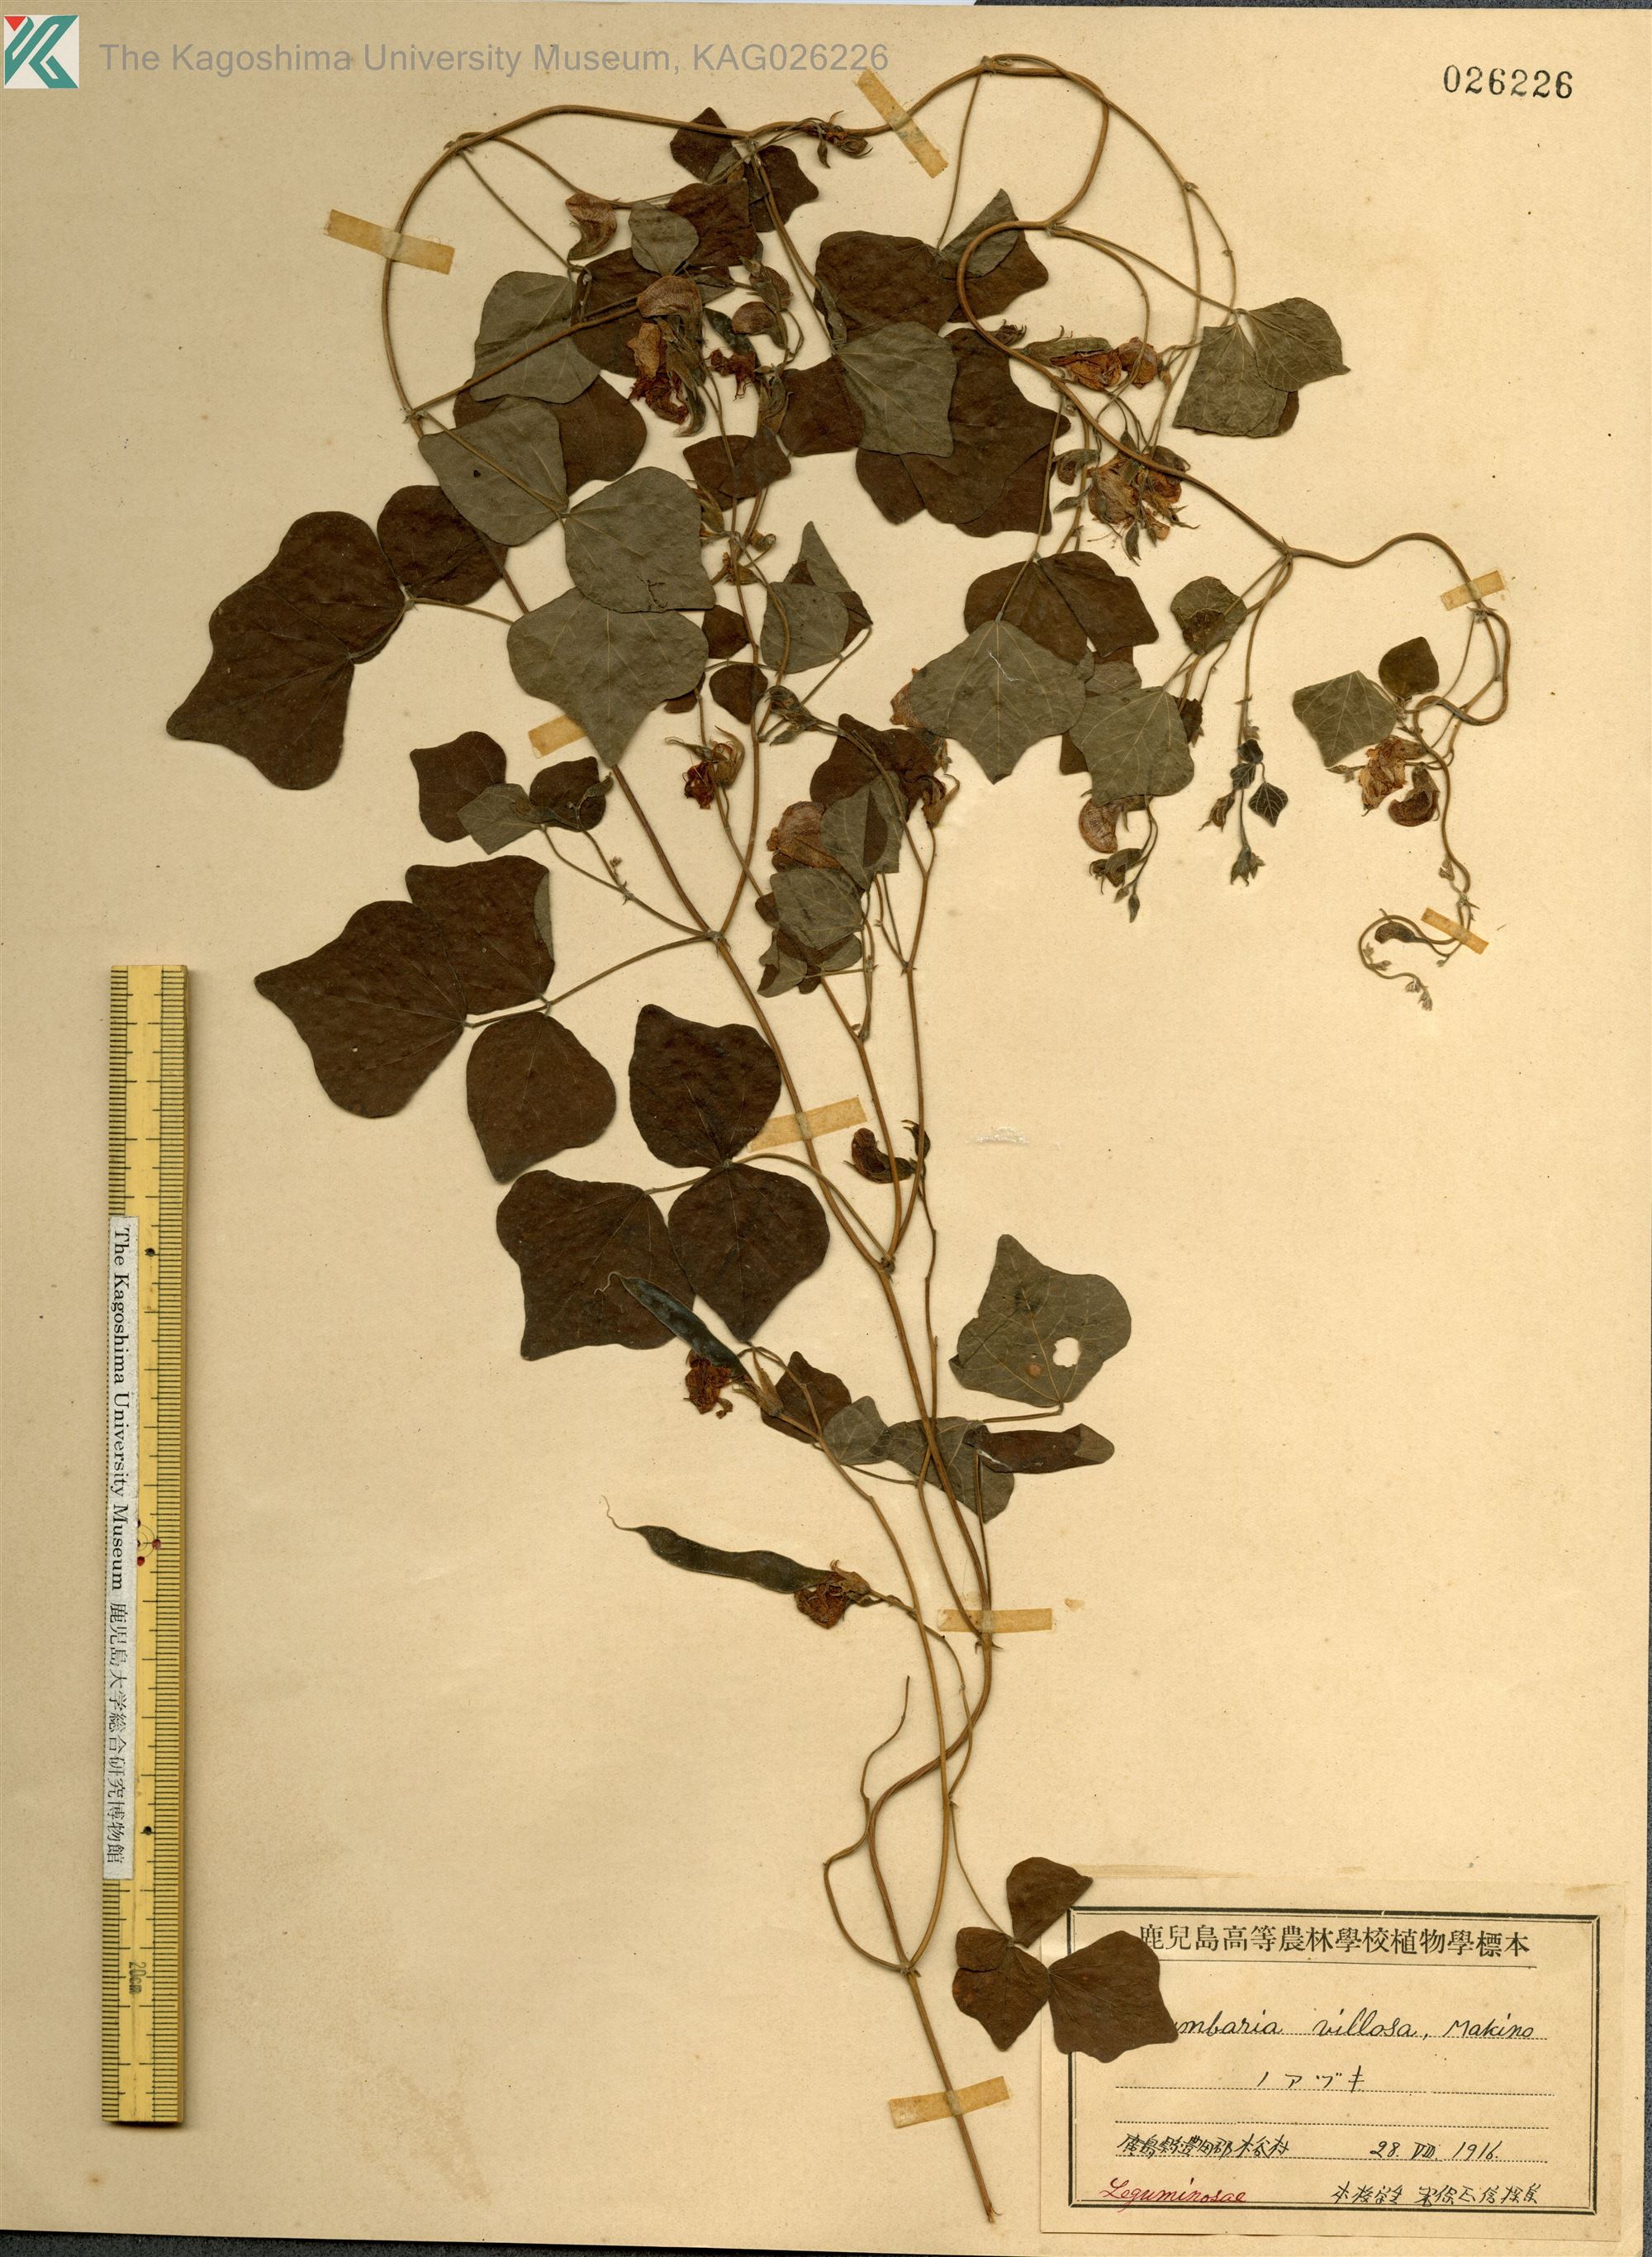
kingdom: Plantae
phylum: Tracheophyta
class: Magnoliopsida
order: Fabales
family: Fabaceae
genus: Dunbaria
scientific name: Dunbaria villosa
